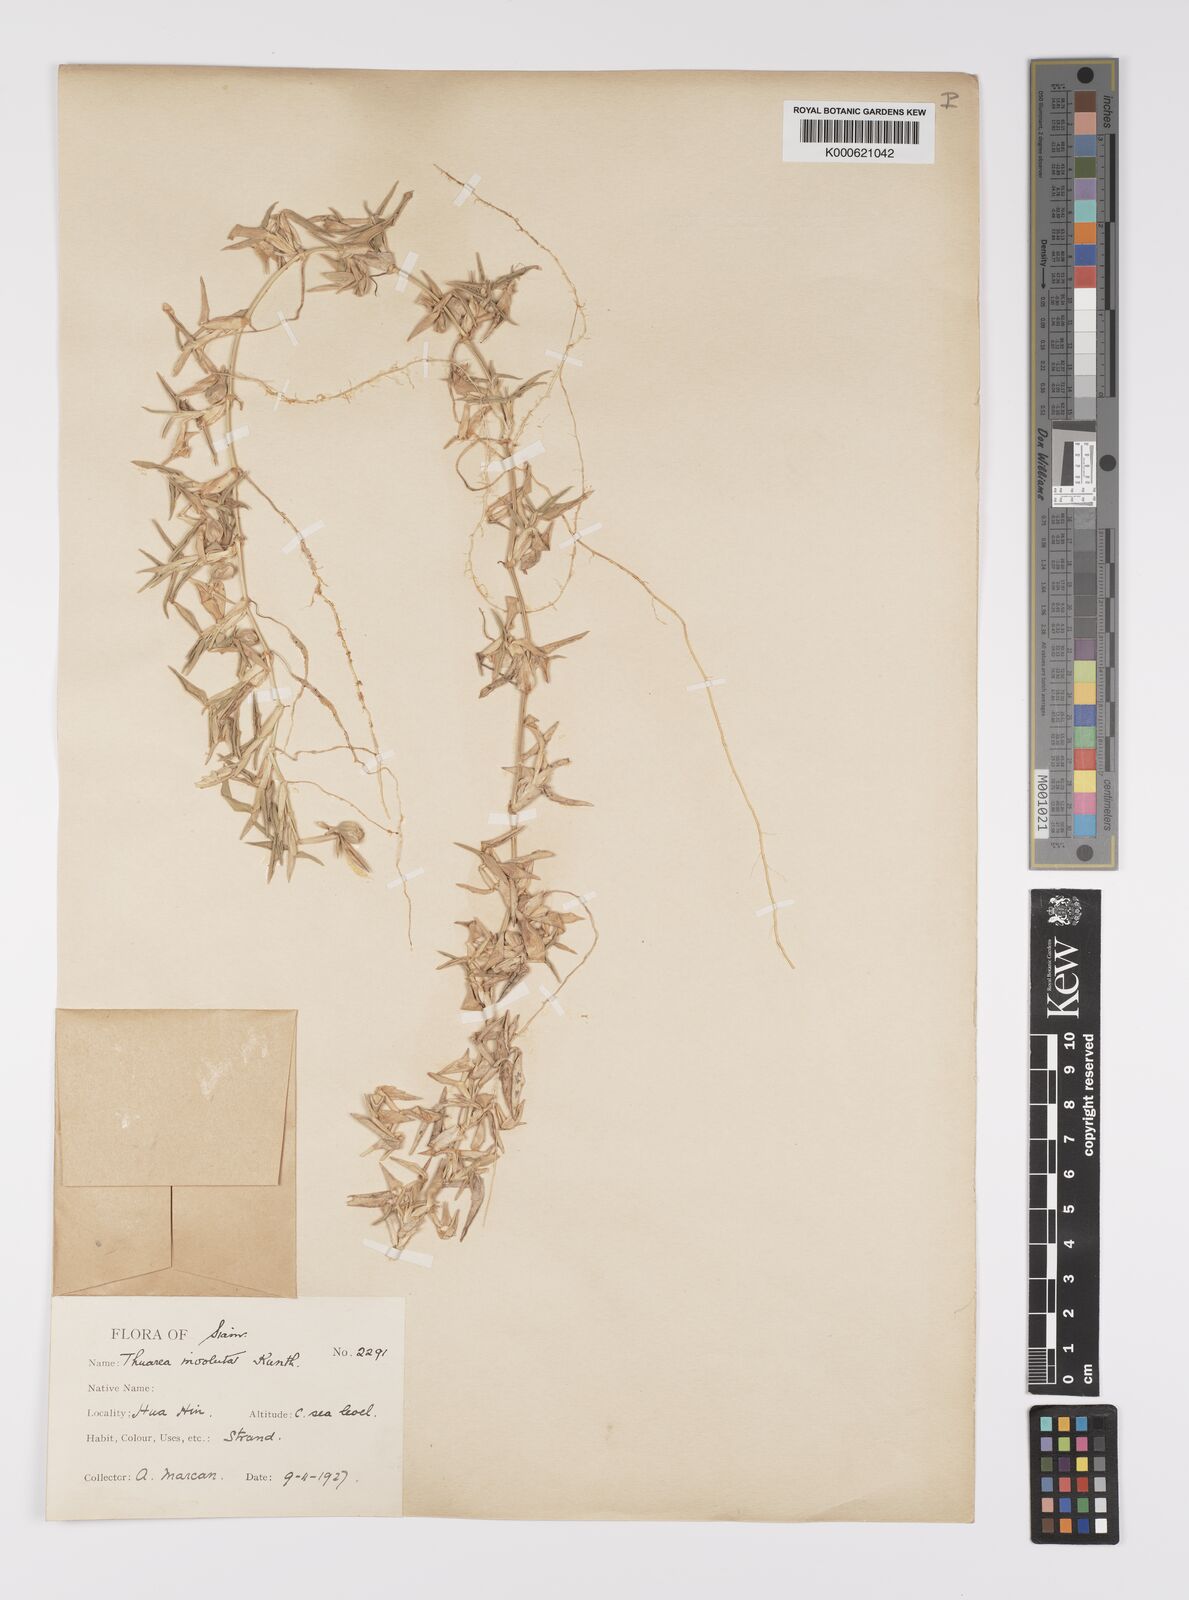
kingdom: Plantae
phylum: Tracheophyta
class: Liliopsida
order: Poales
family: Poaceae
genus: Thuarea
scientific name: Thuarea involuta
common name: Tropical beach grass
